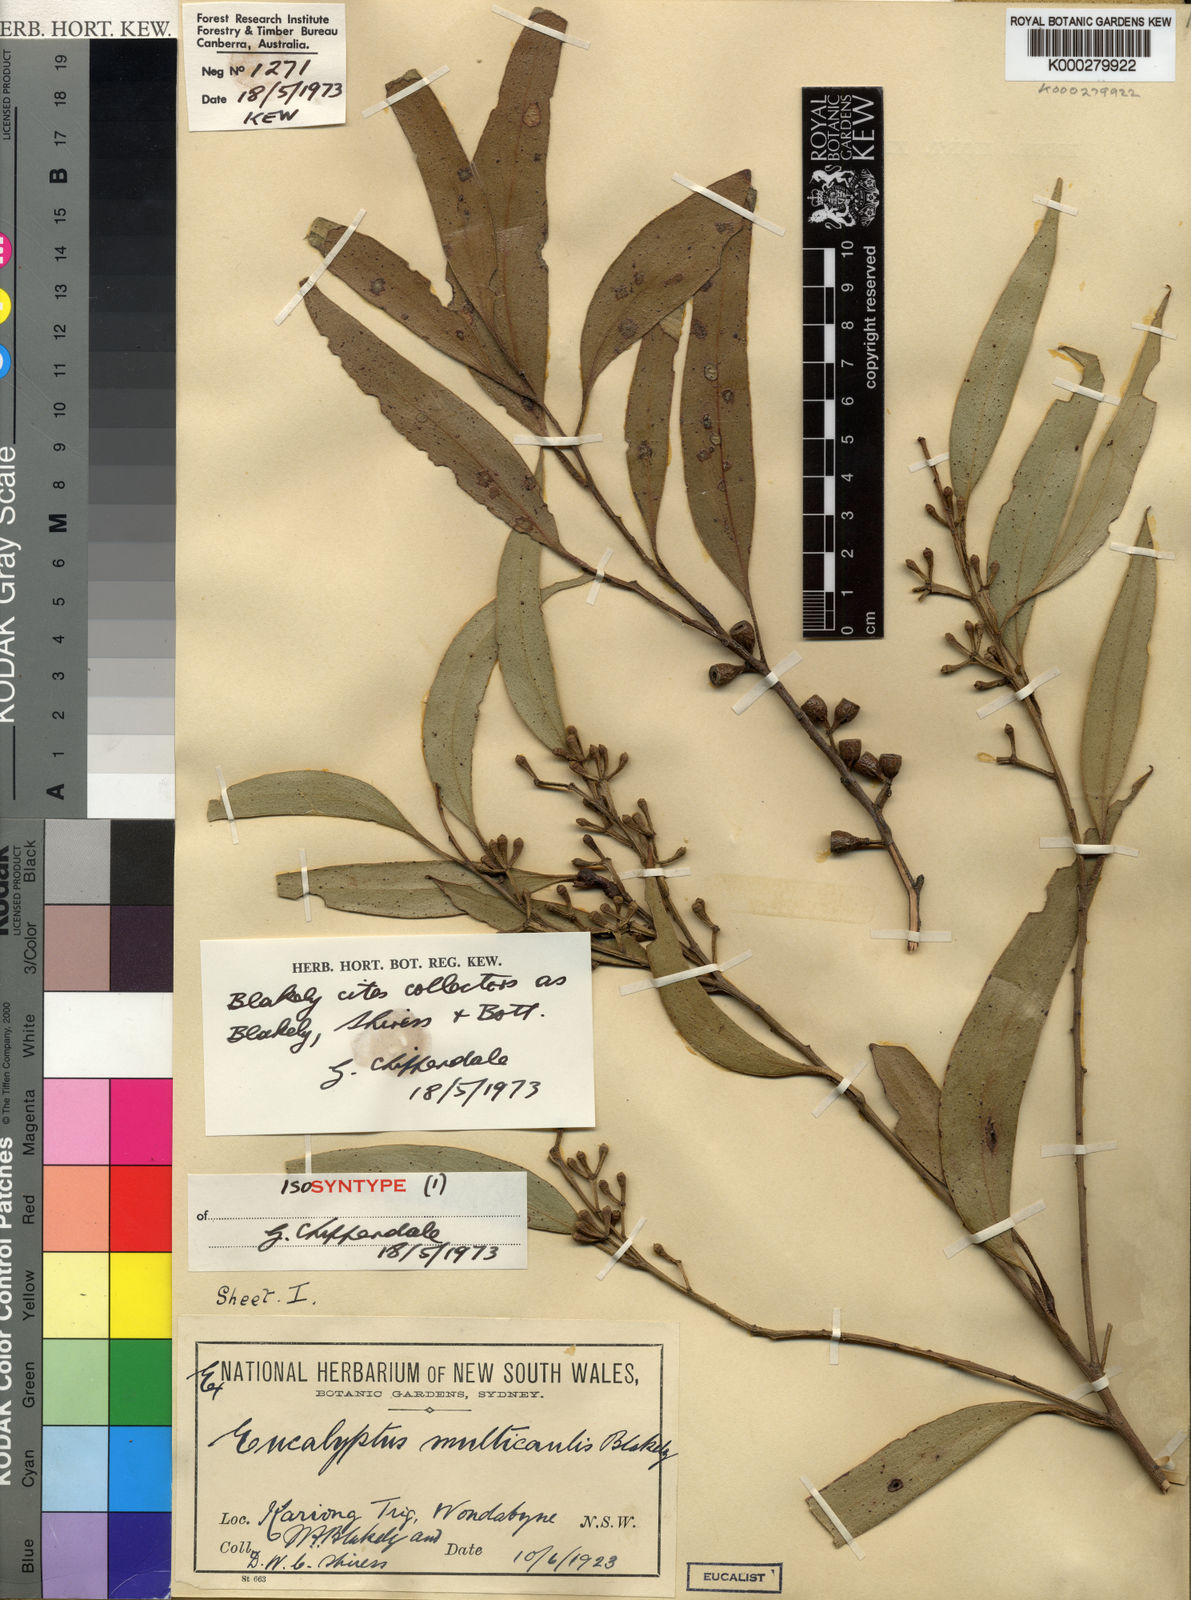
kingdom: Plantae
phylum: Tracheophyta
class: Magnoliopsida
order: Myrtales
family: Myrtaceae
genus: Eucalyptus
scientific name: Eucalyptus multicaulis
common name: Whipstick mallee-ash
